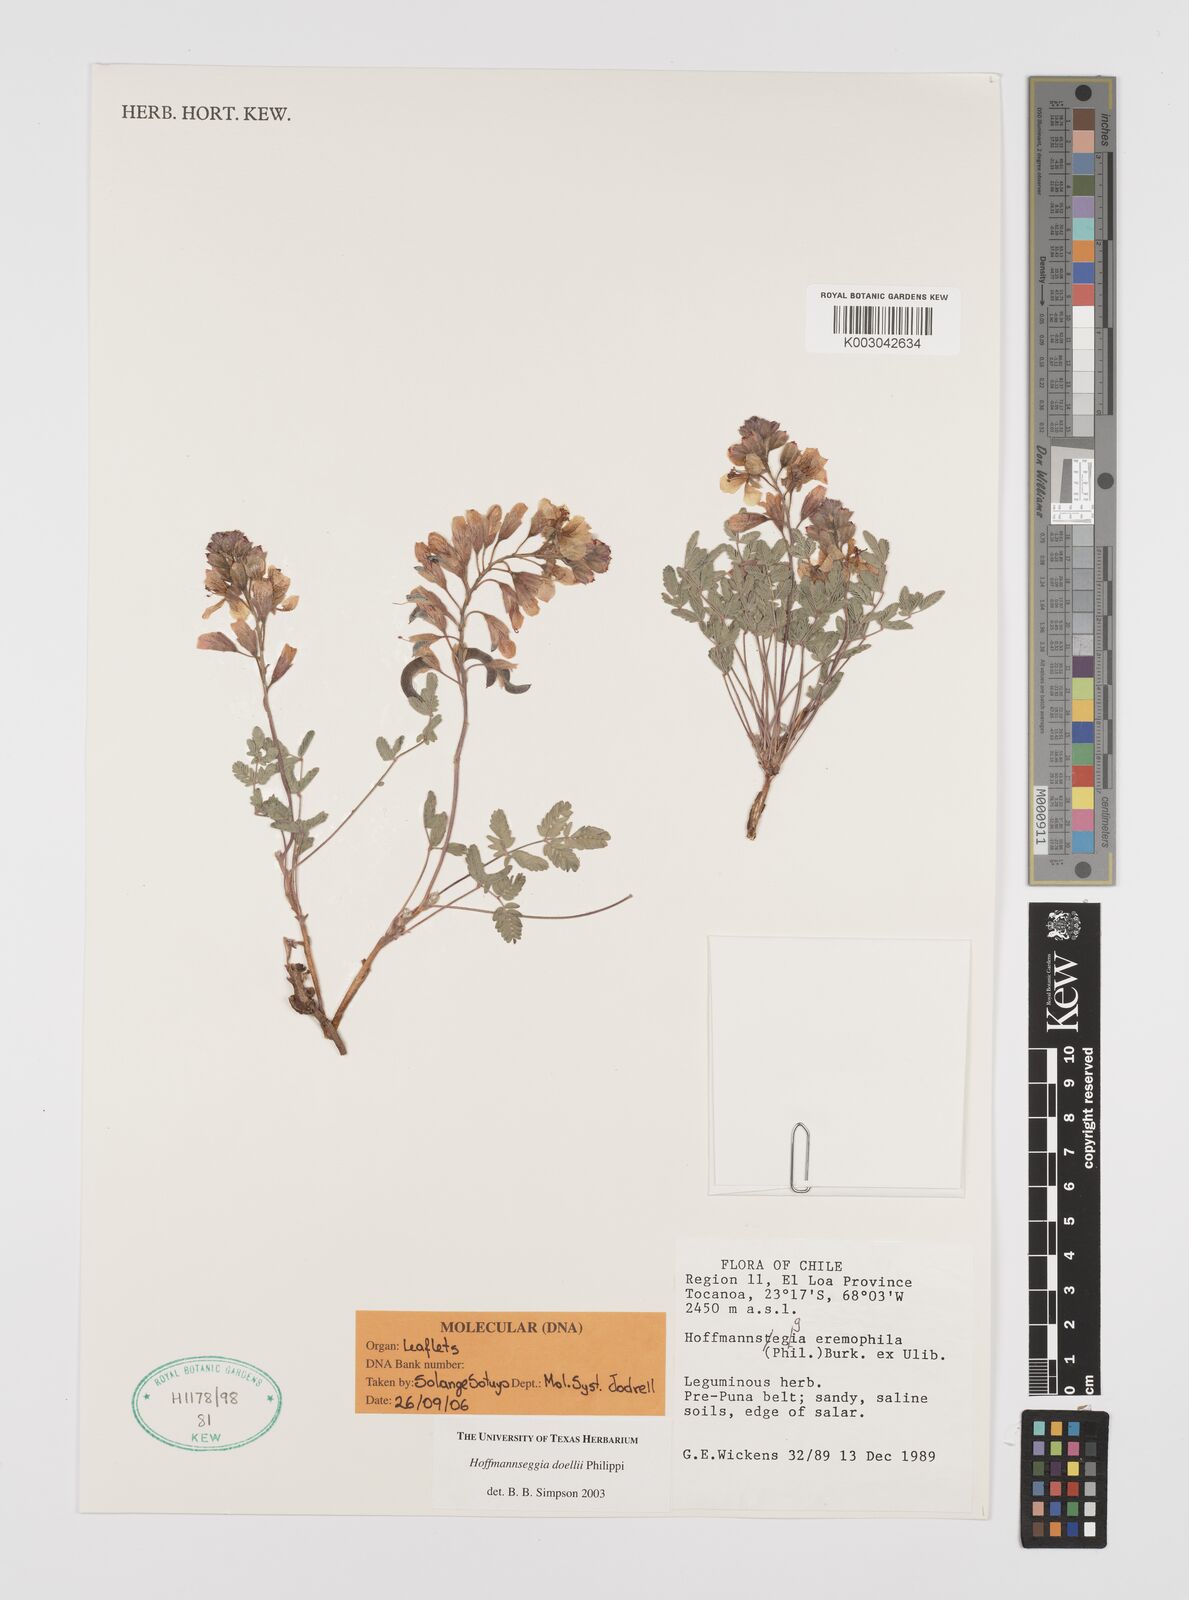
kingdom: Plantae
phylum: Tracheophyta
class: Magnoliopsida
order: Fabales
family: Fabaceae
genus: Hoffmannseggia
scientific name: Hoffmannseggia doellii
